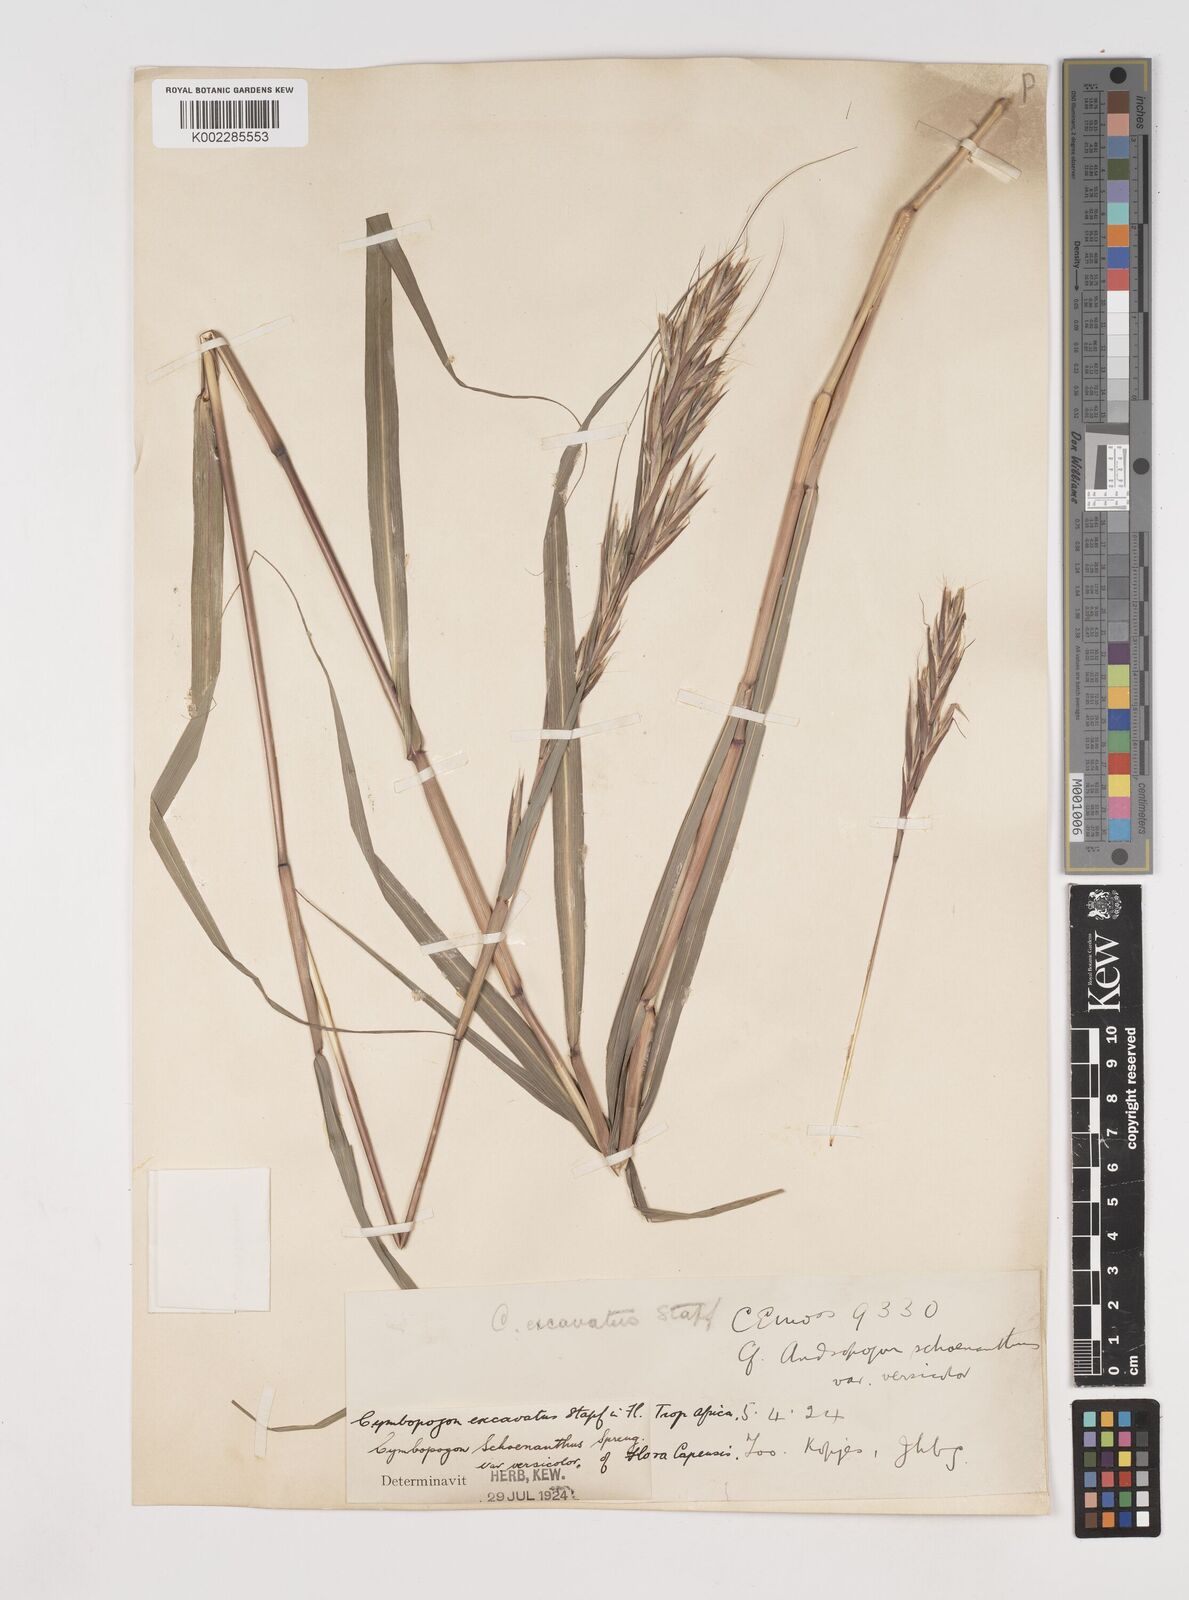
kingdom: Plantae
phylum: Tracheophyta
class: Liliopsida
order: Poales
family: Poaceae
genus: Cymbopogon
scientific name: Cymbopogon caesius
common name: Kachi grass
